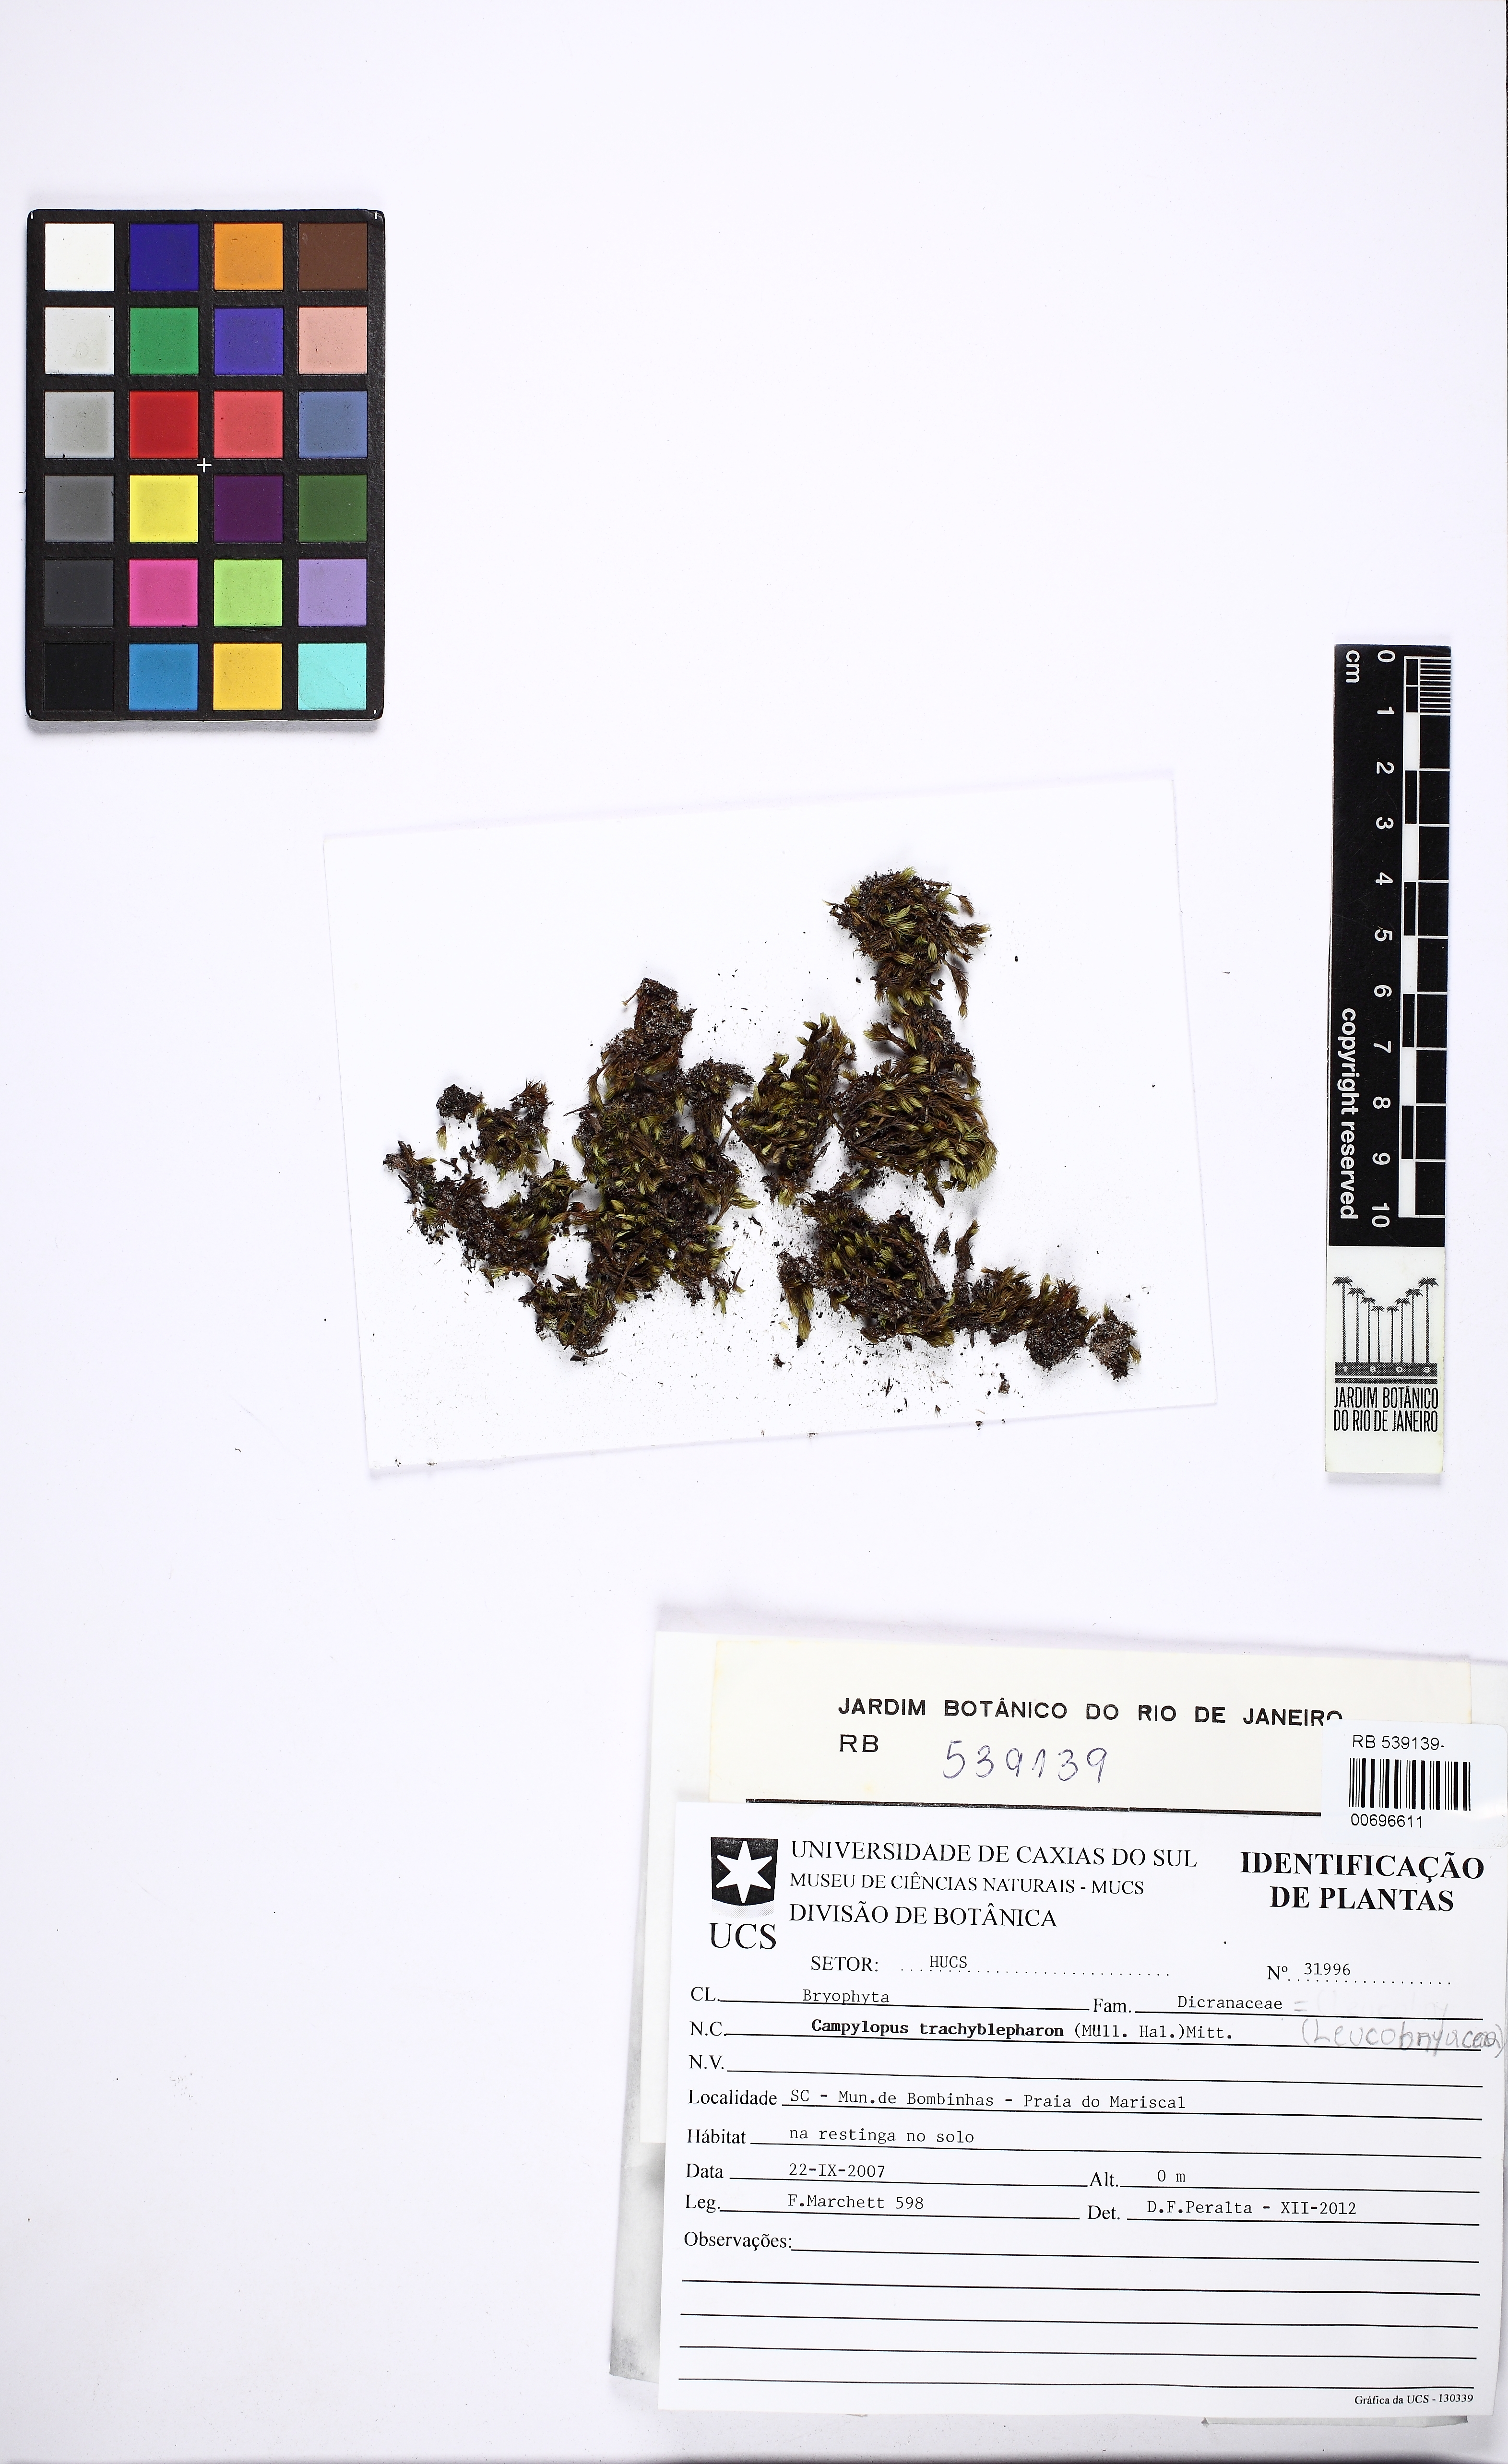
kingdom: Plantae
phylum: Bryophyta
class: Bryopsida
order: Dicranales
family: Leucobryaceae
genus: Campylopus
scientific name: Campylopus trachyblepharon
